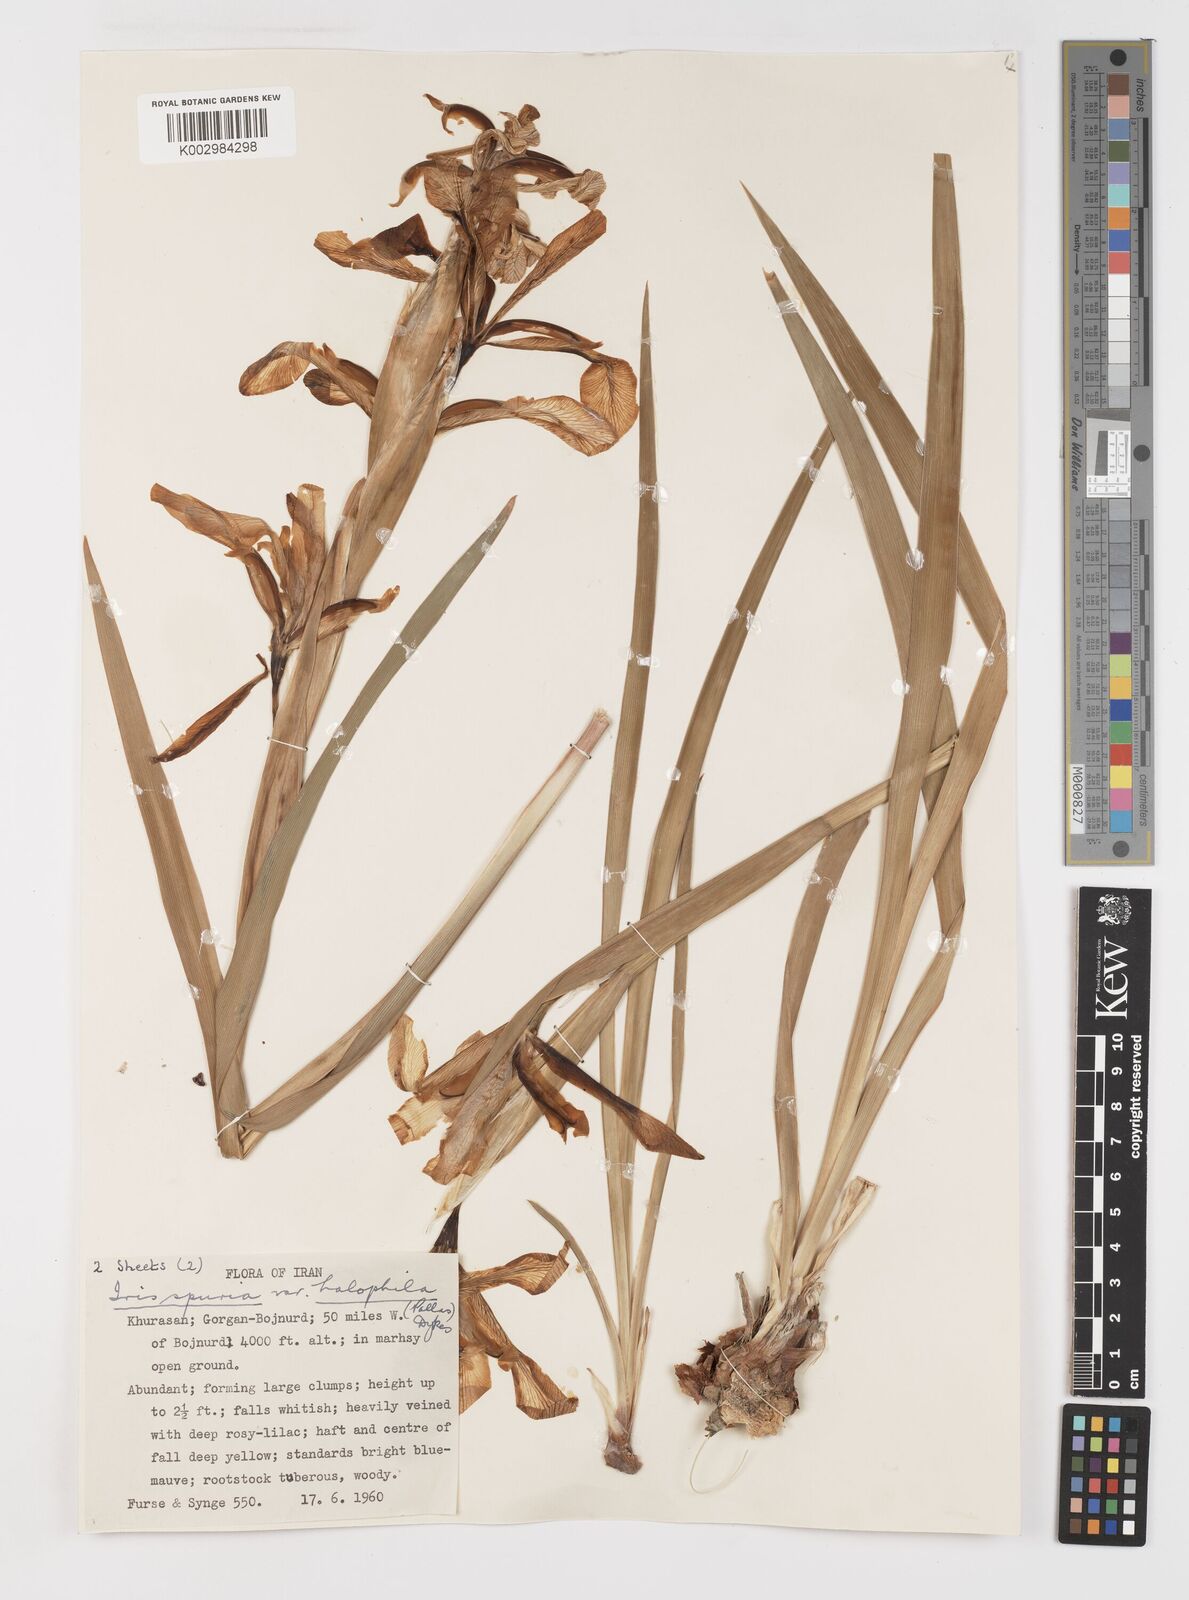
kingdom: Plantae
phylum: Tracheophyta
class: Liliopsida
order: Asparagales
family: Iridaceae
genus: Iris
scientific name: Iris spuria
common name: Blue iris
